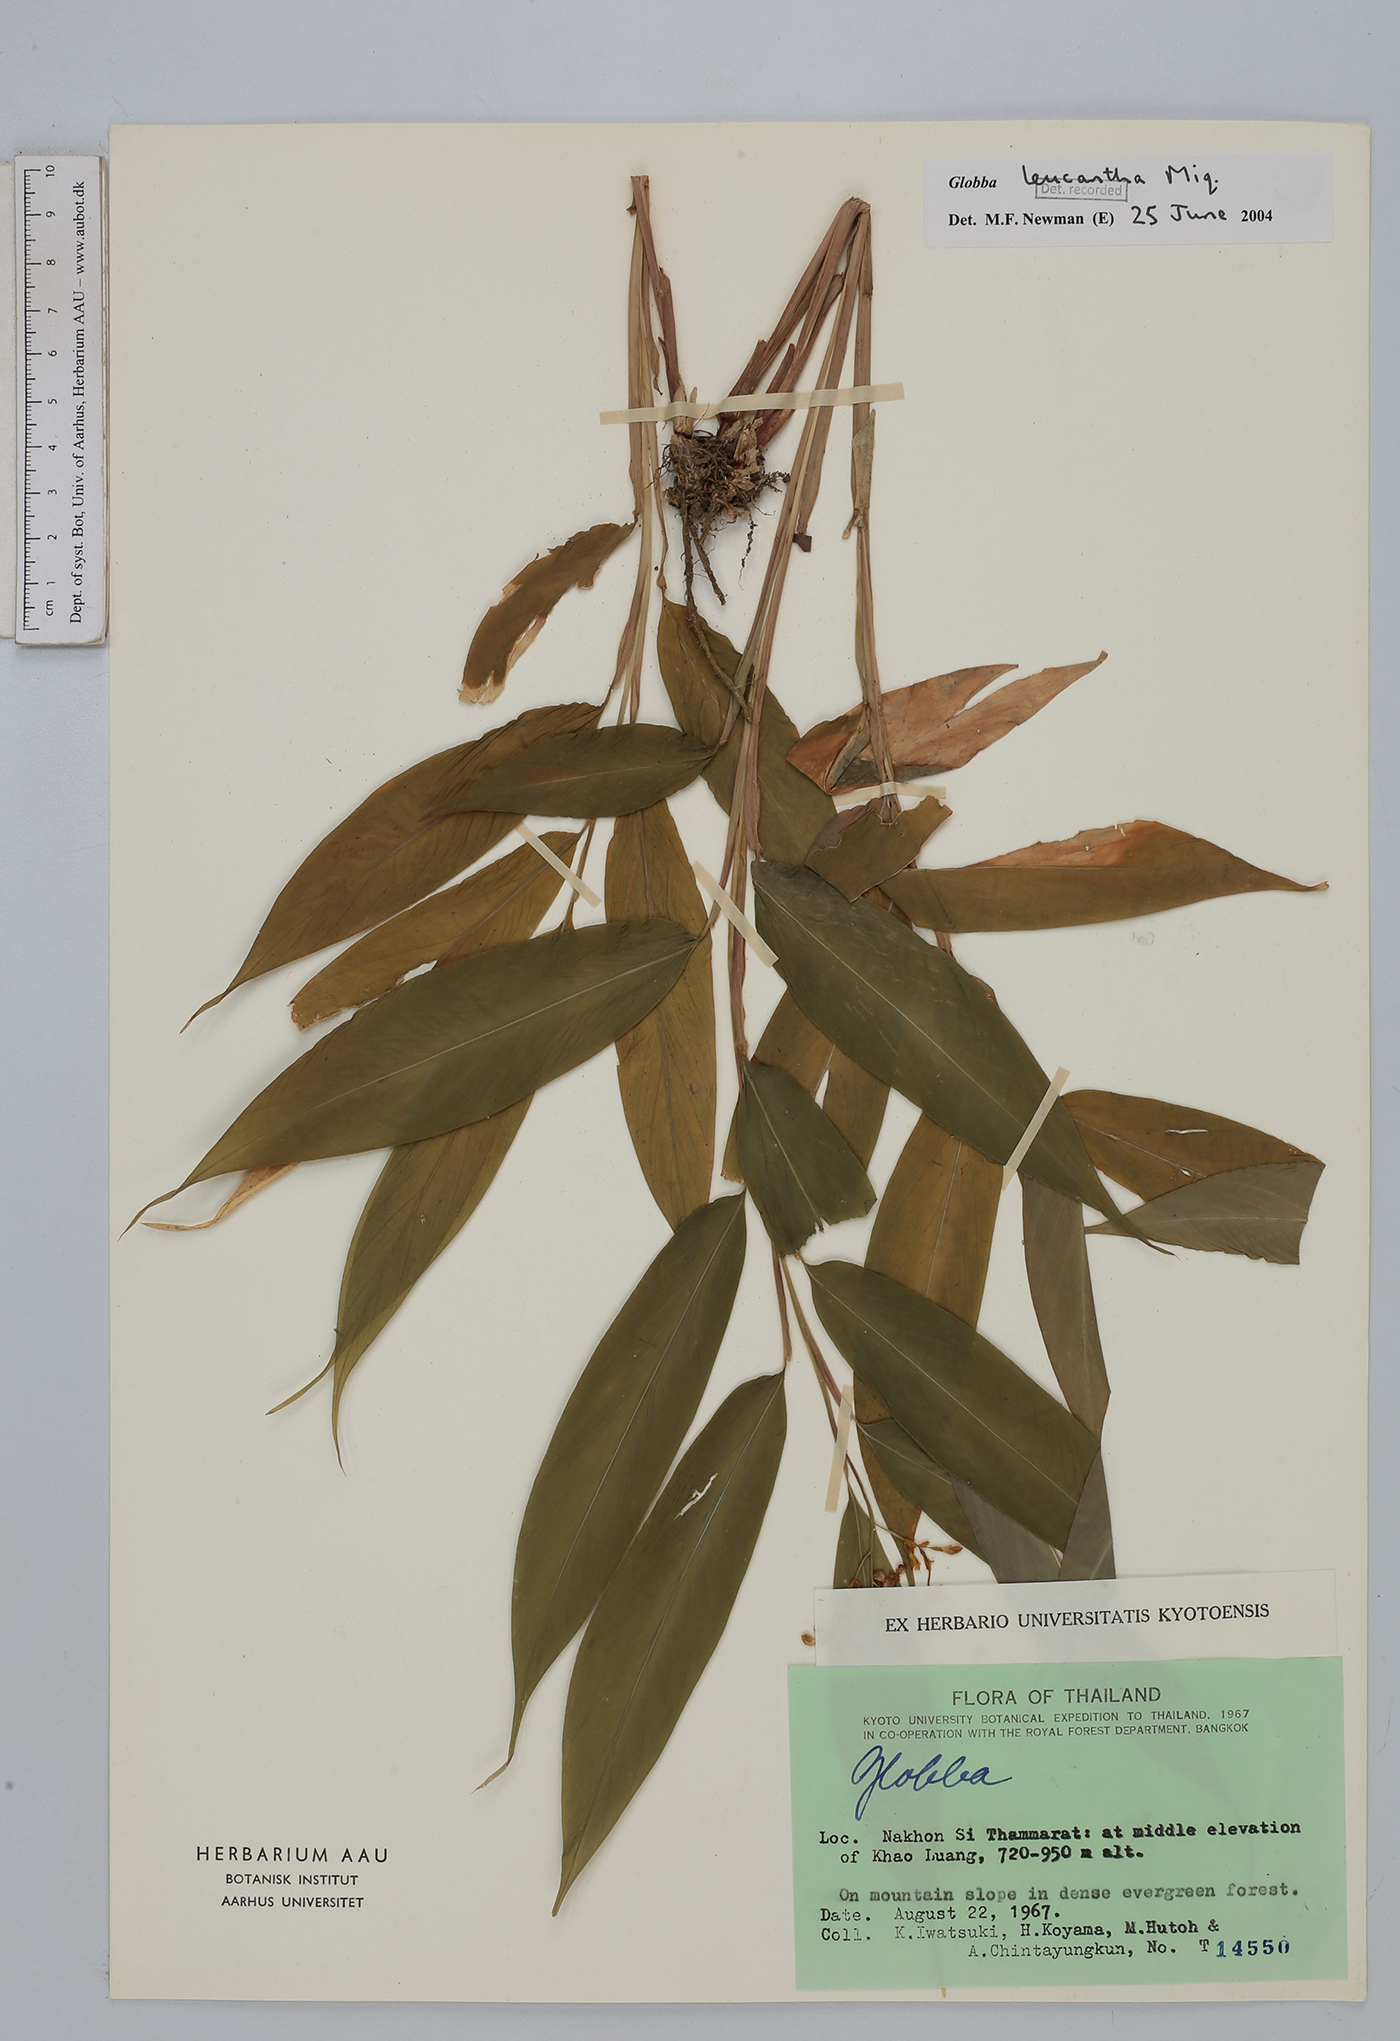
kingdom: Plantae
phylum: Tracheophyta
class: Liliopsida
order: Zingiberales
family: Zingiberaceae
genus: Globba
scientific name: Globba leucantha
